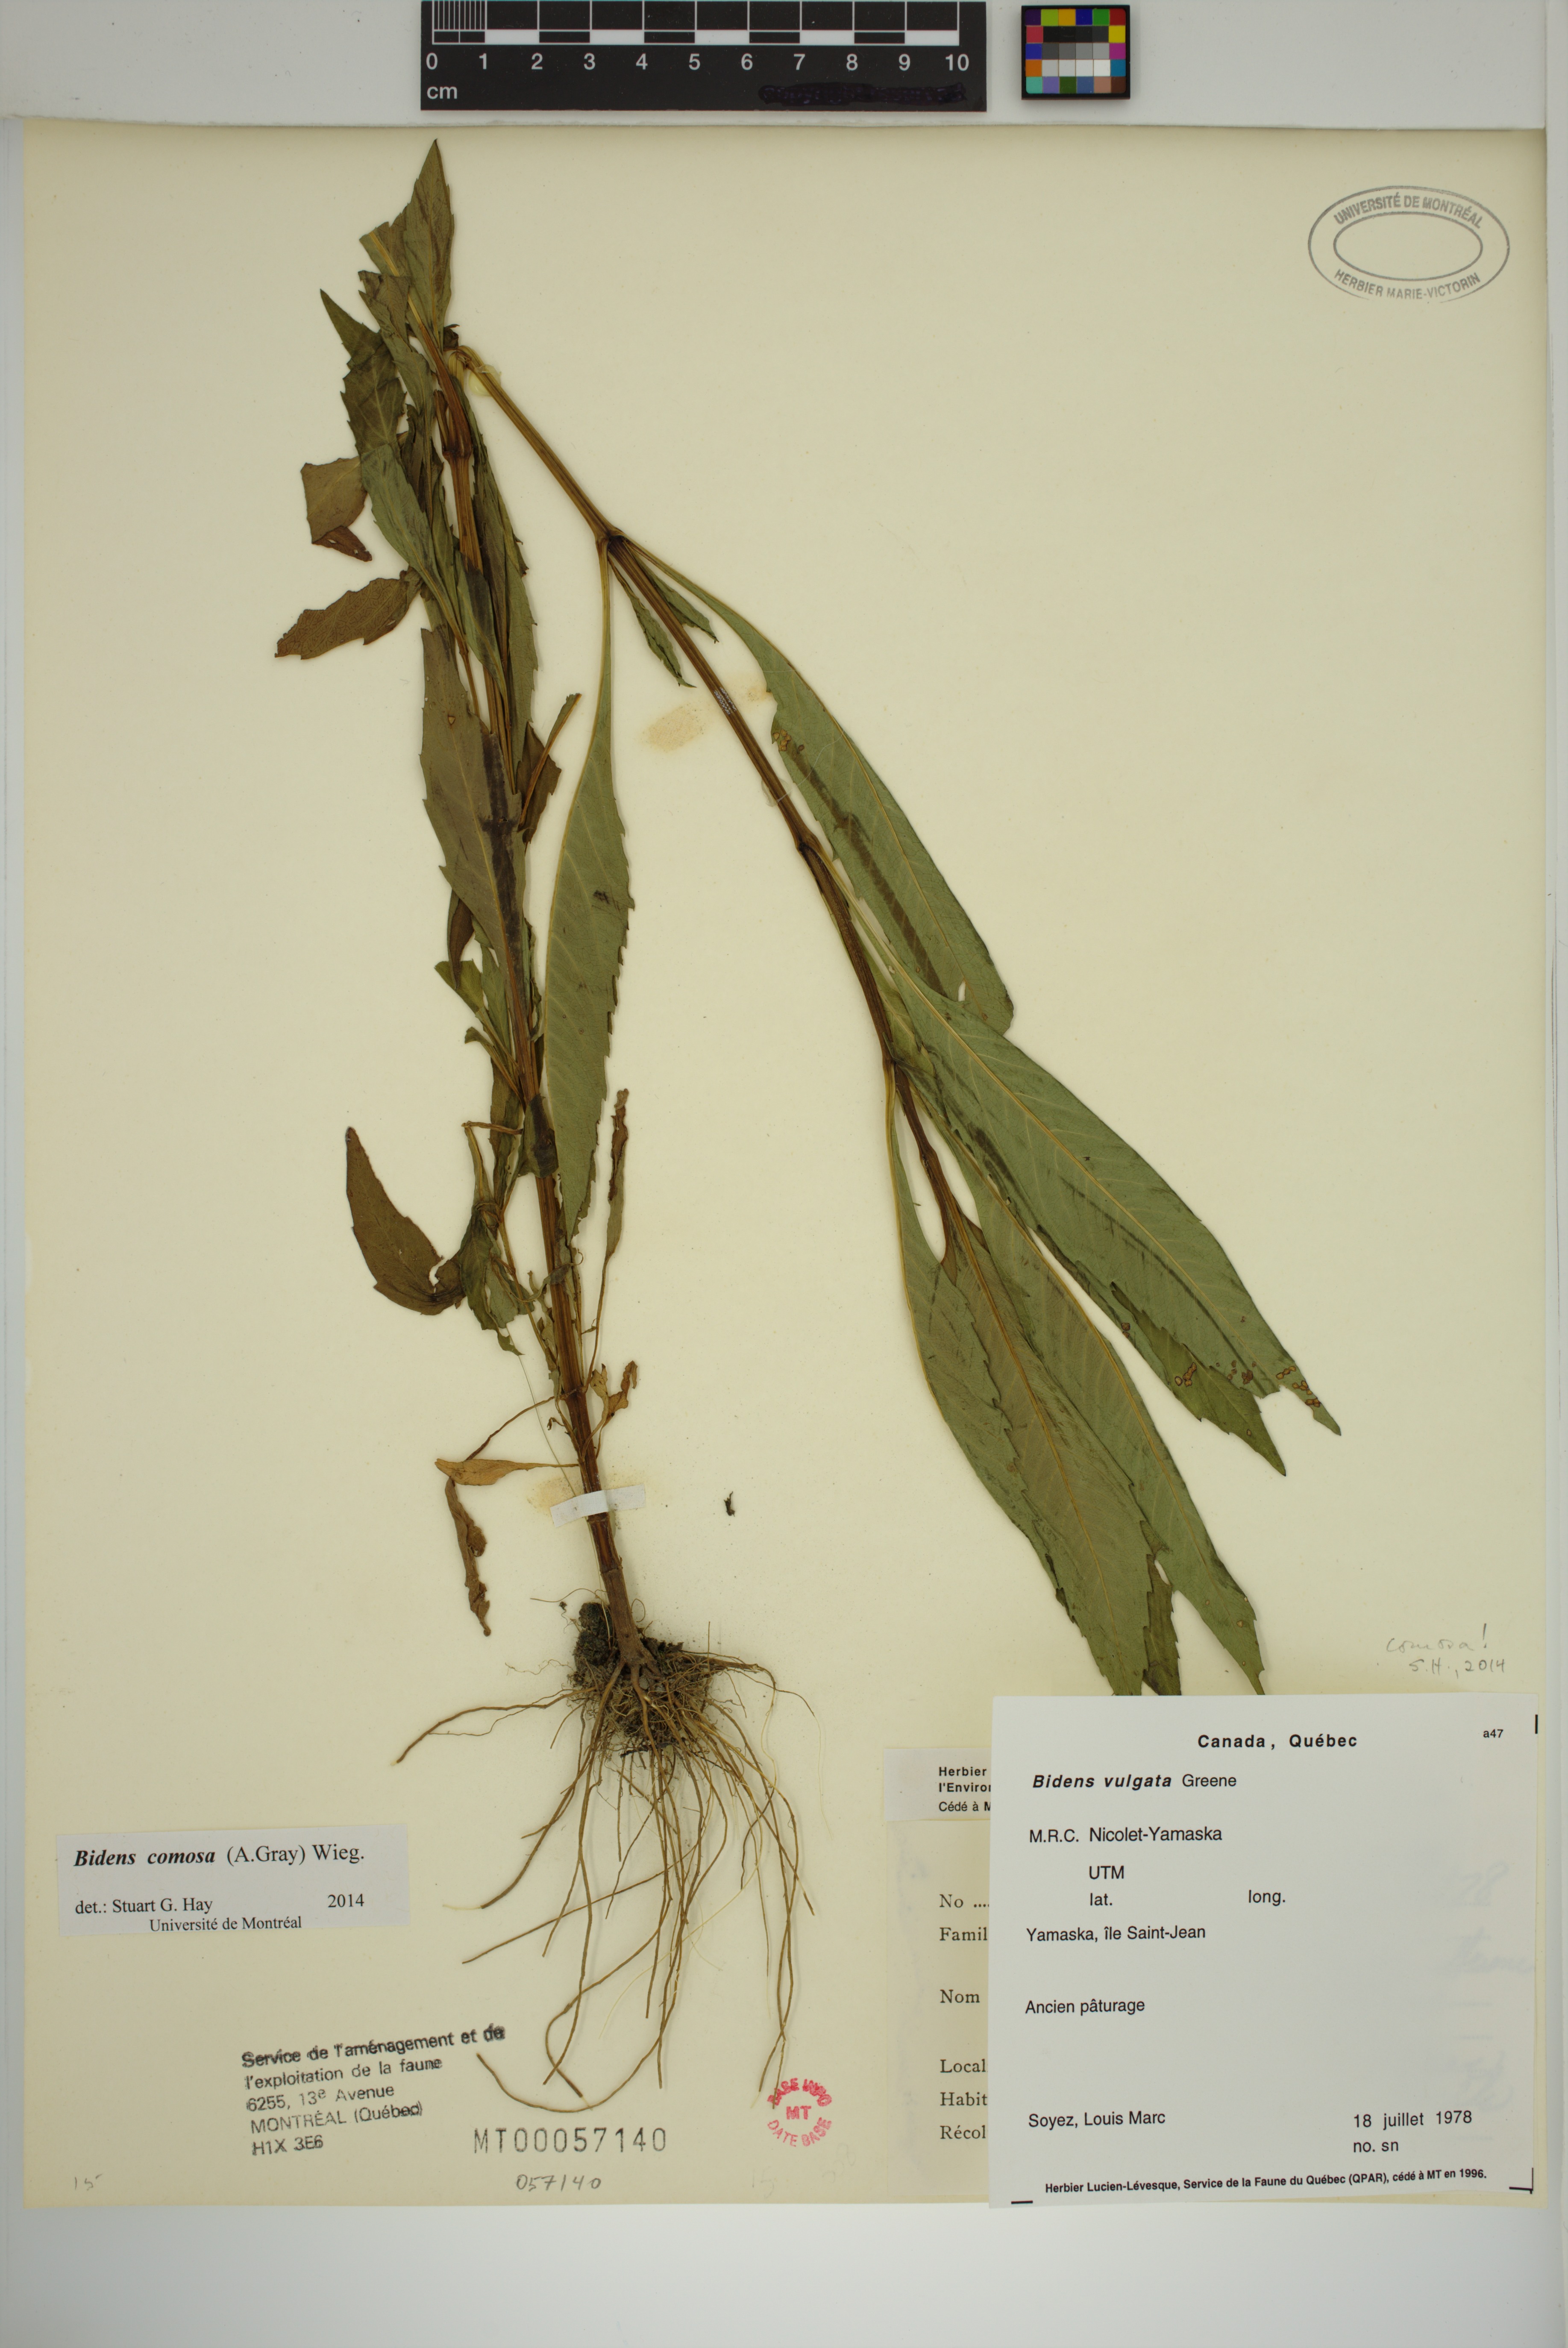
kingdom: Plantae
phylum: Tracheophyta
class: Magnoliopsida
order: Asterales
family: Asteraceae
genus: Bidens
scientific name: Bidens tripartita
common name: Trifid bur-marigold
